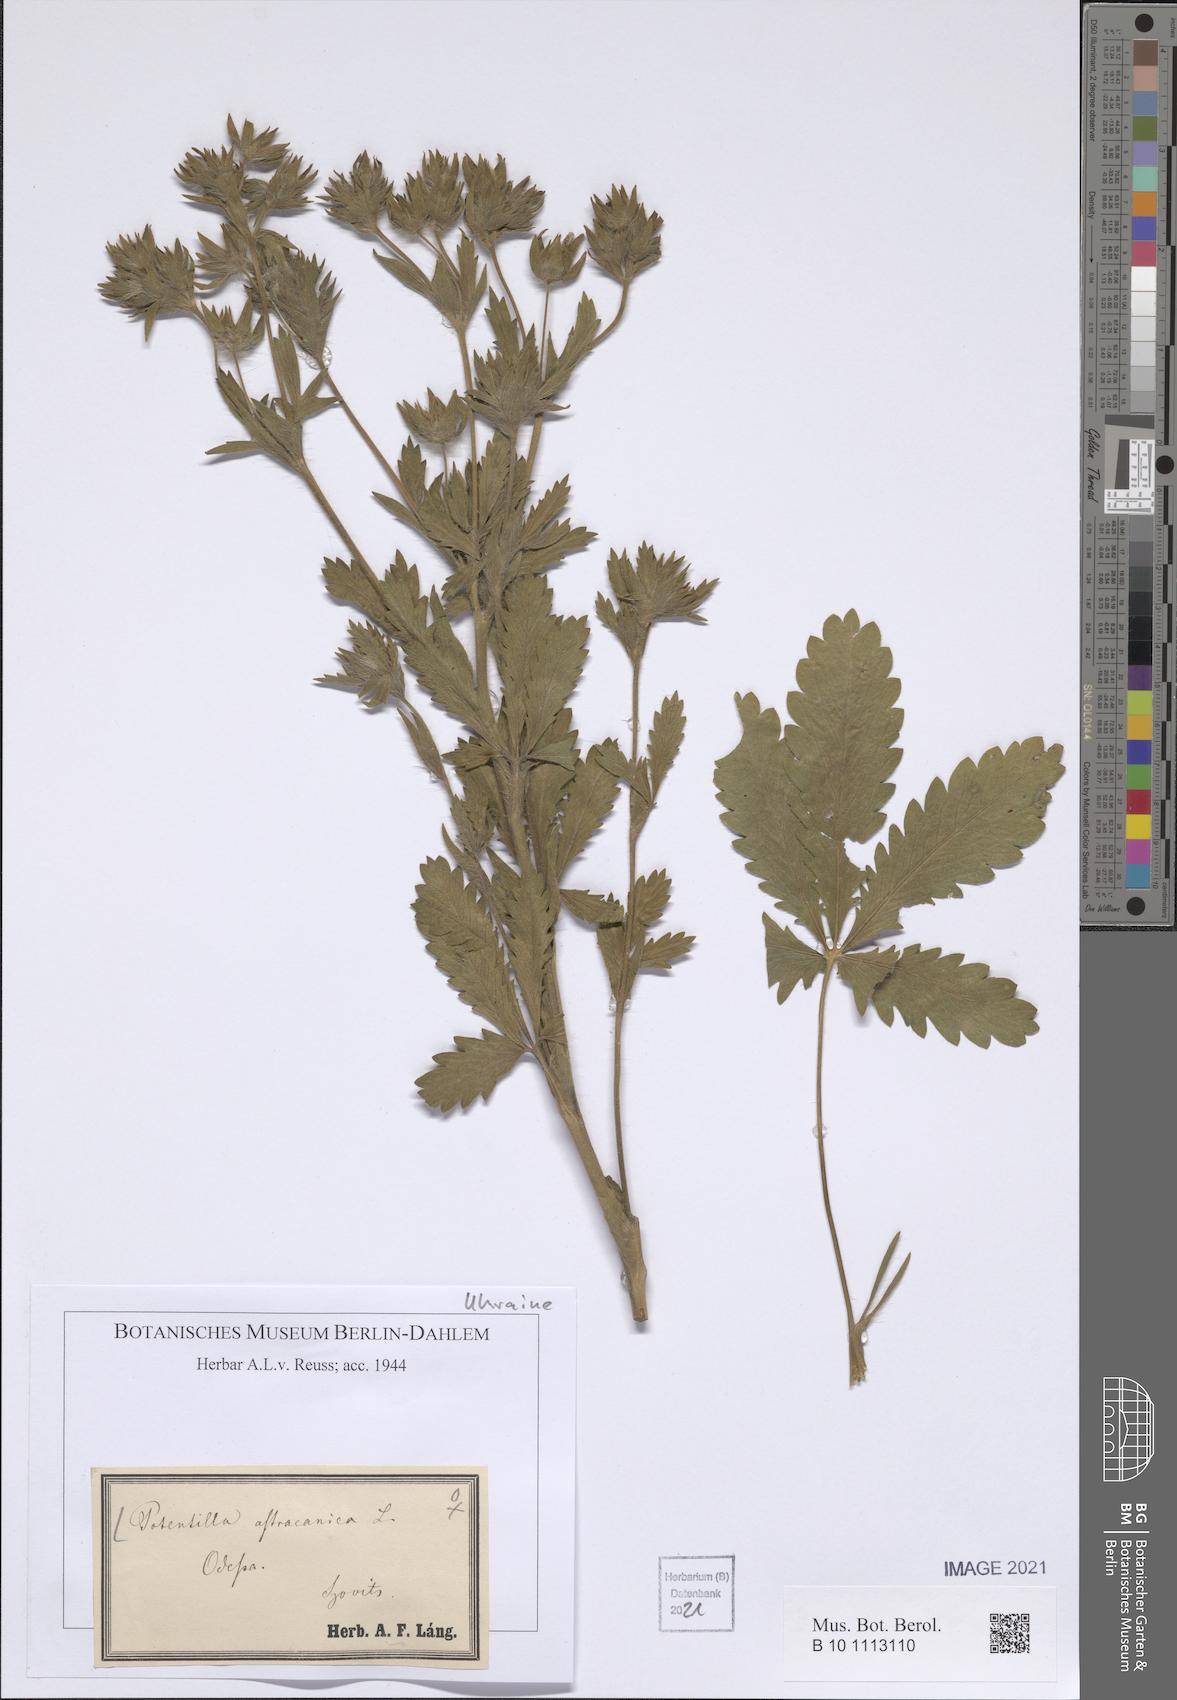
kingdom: Plantae
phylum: Tracheophyta
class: Magnoliopsida
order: Rosales
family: Rosaceae
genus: Potentilla
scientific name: Potentilla astracanica
